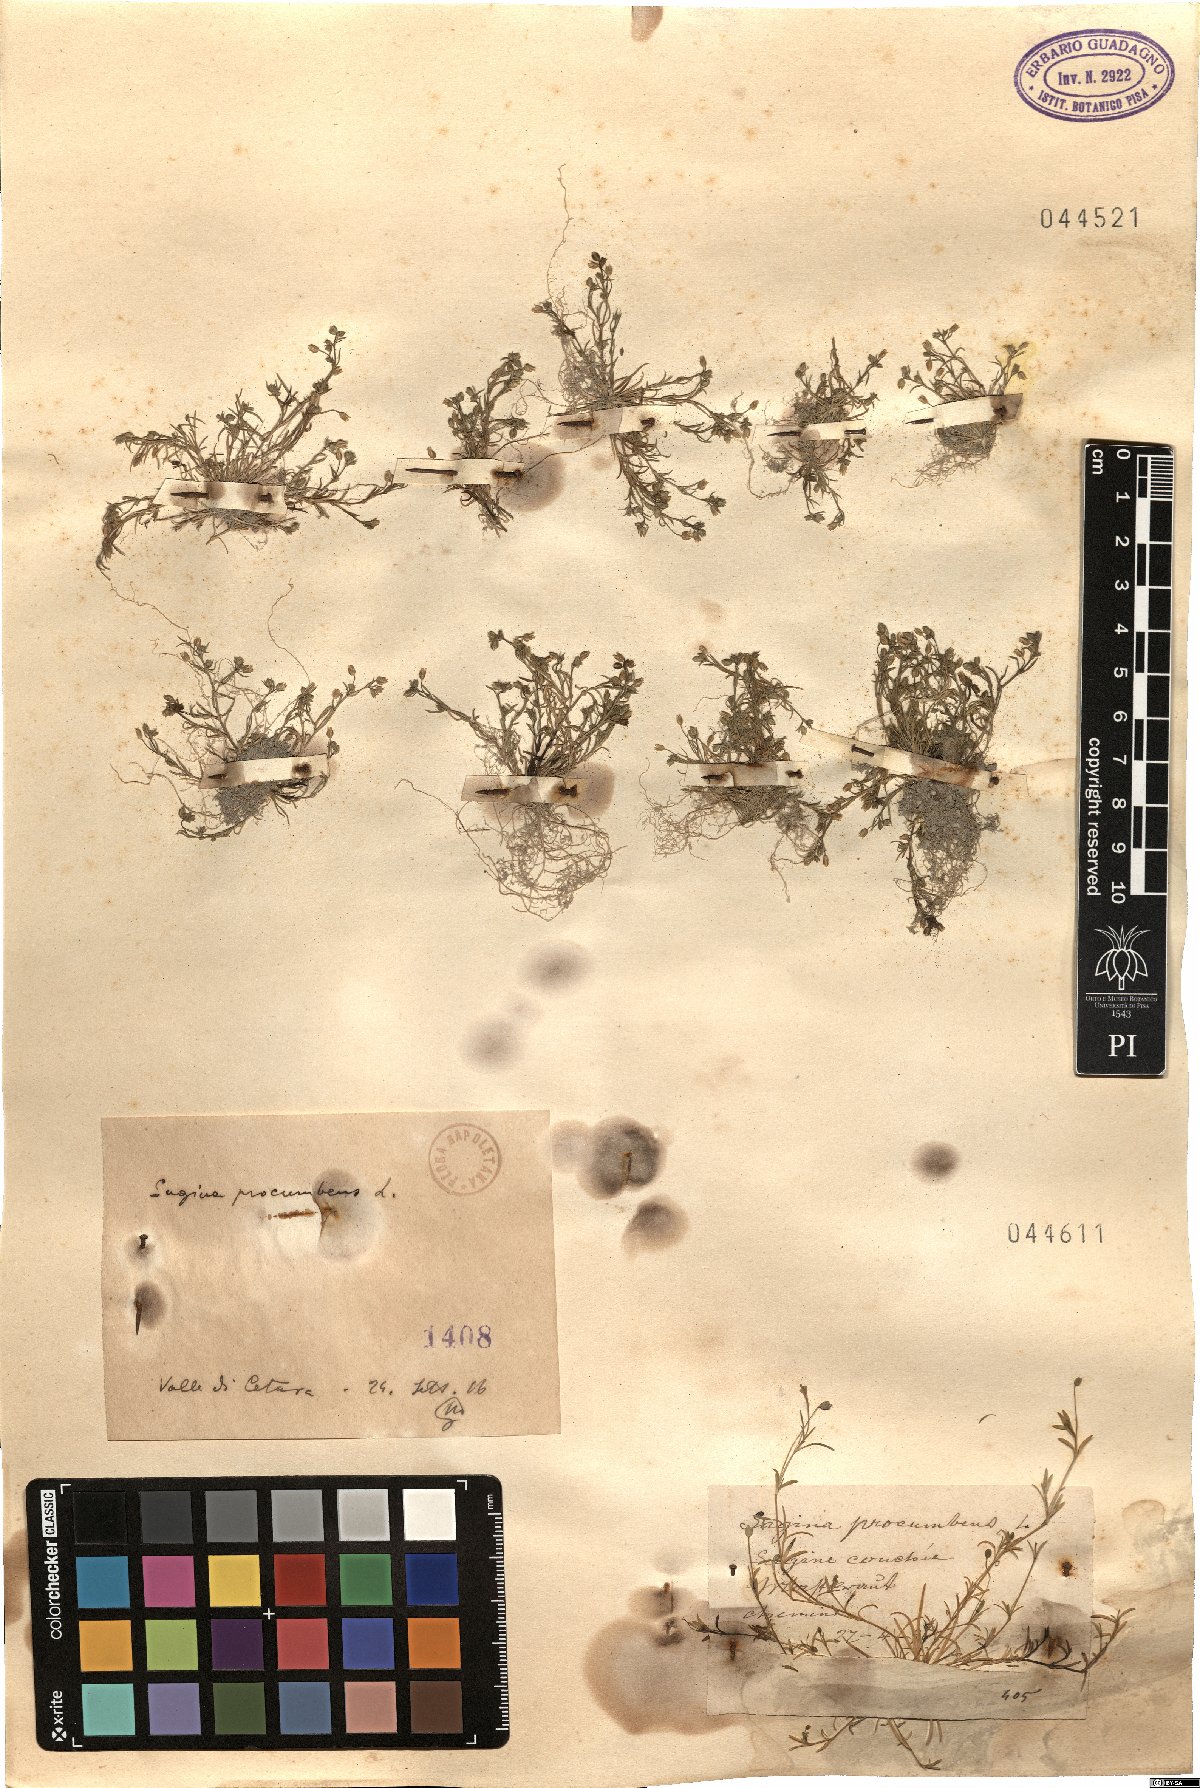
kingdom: Plantae
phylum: Tracheophyta
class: Magnoliopsida
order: Caryophyllales
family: Caryophyllaceae
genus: Sagina
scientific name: Sagina procumbens
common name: Procumbent pearlwort
